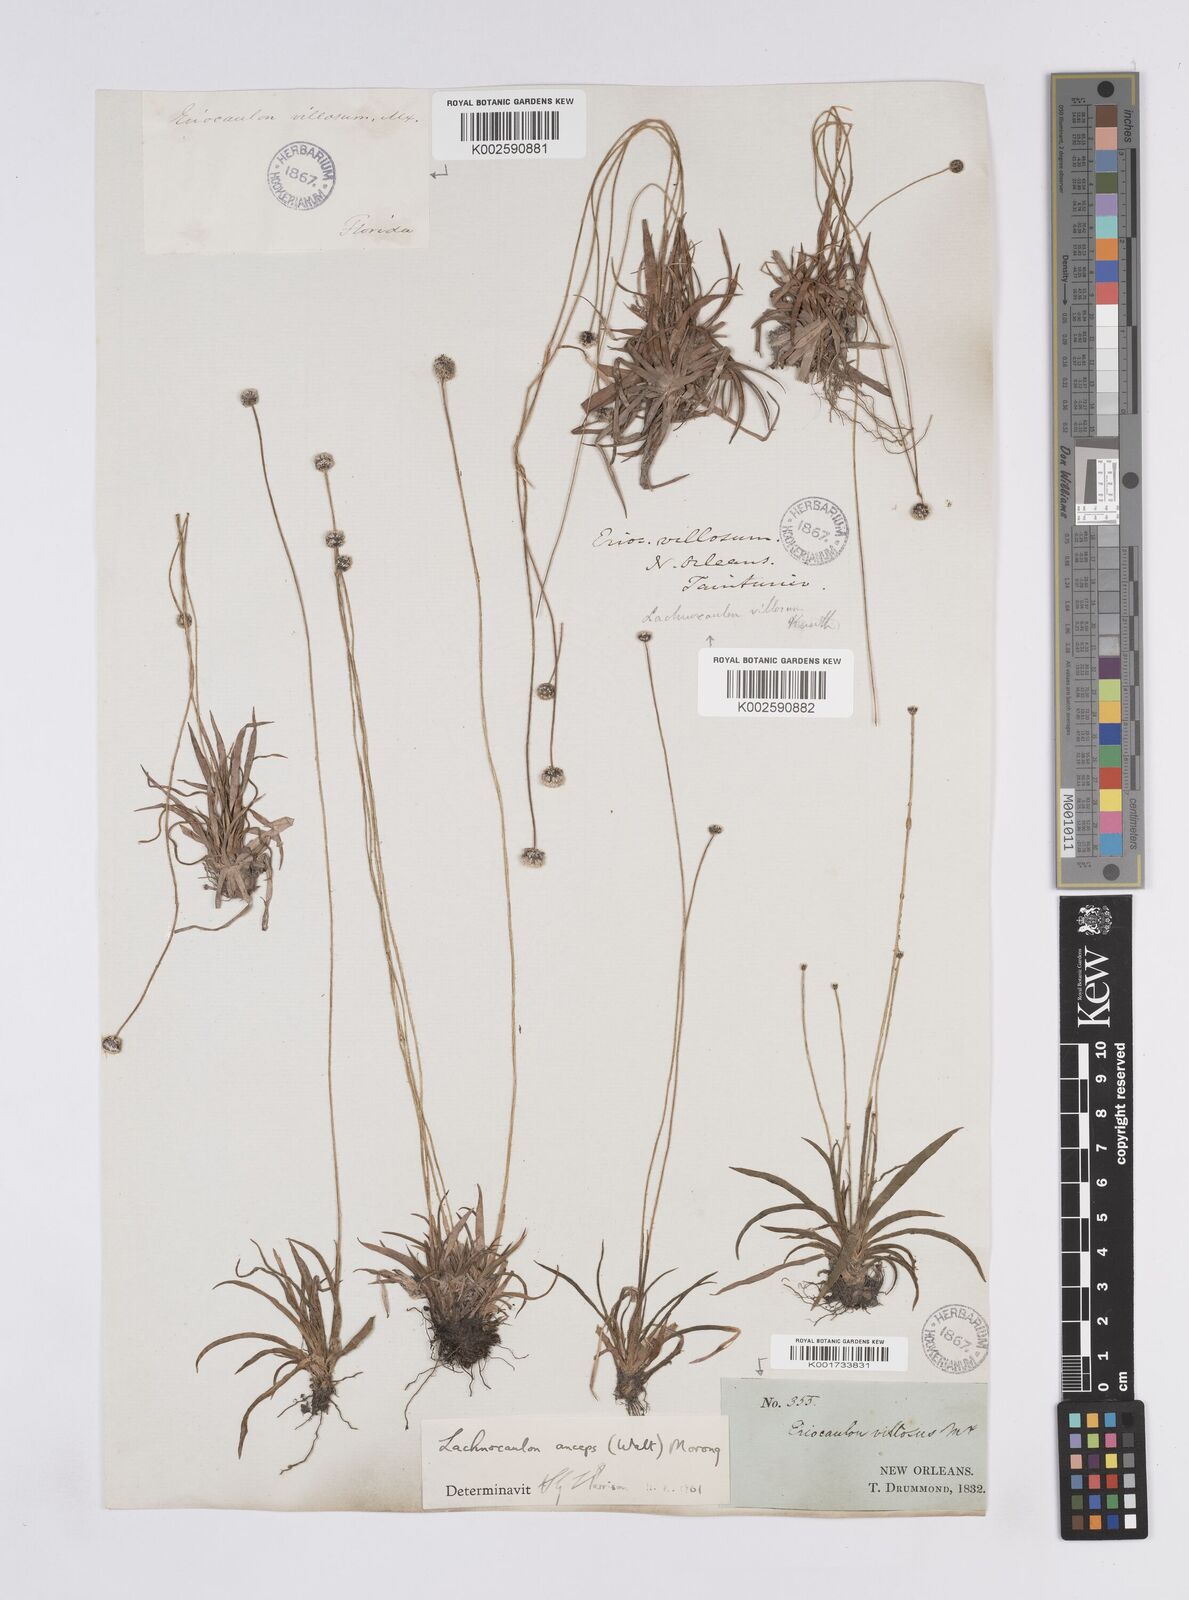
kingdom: Plantae
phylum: Tracheophyta
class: Liliopsida
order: Poales
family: Eriocaulaceae
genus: Paepalanthus
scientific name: Paepalanthus anceps
